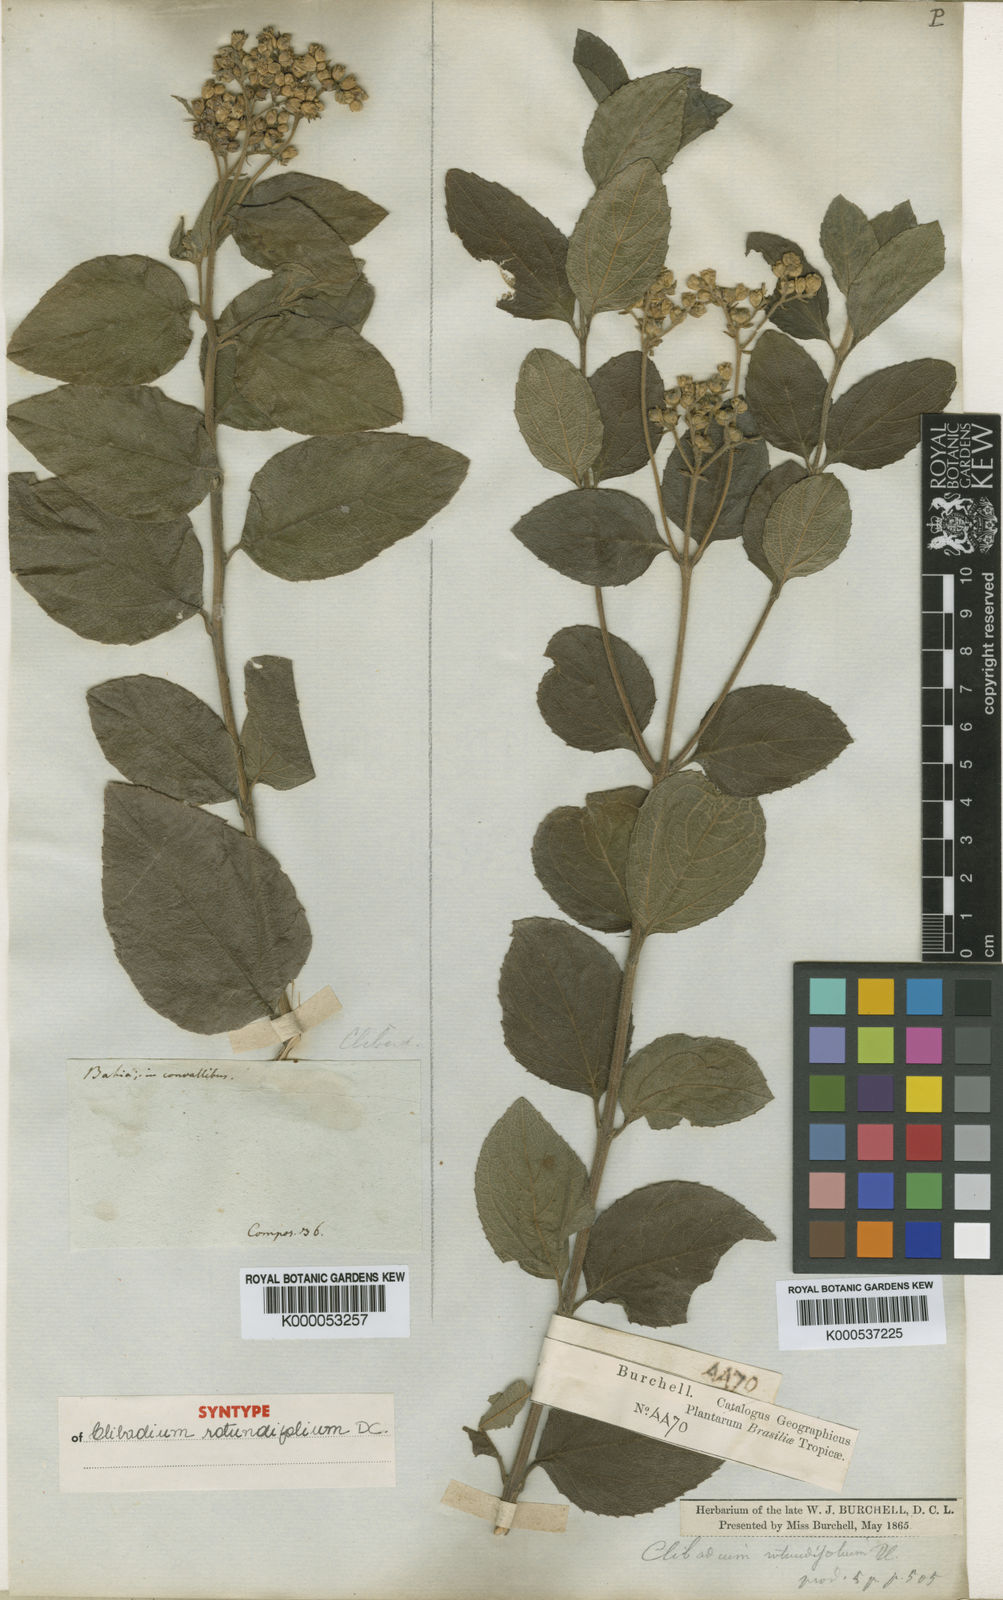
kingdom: Plantae
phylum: Tracheophyta
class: Magnoliopsida
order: Asterales
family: Asteraceae
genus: Clibadium
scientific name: Clibadium armanii
